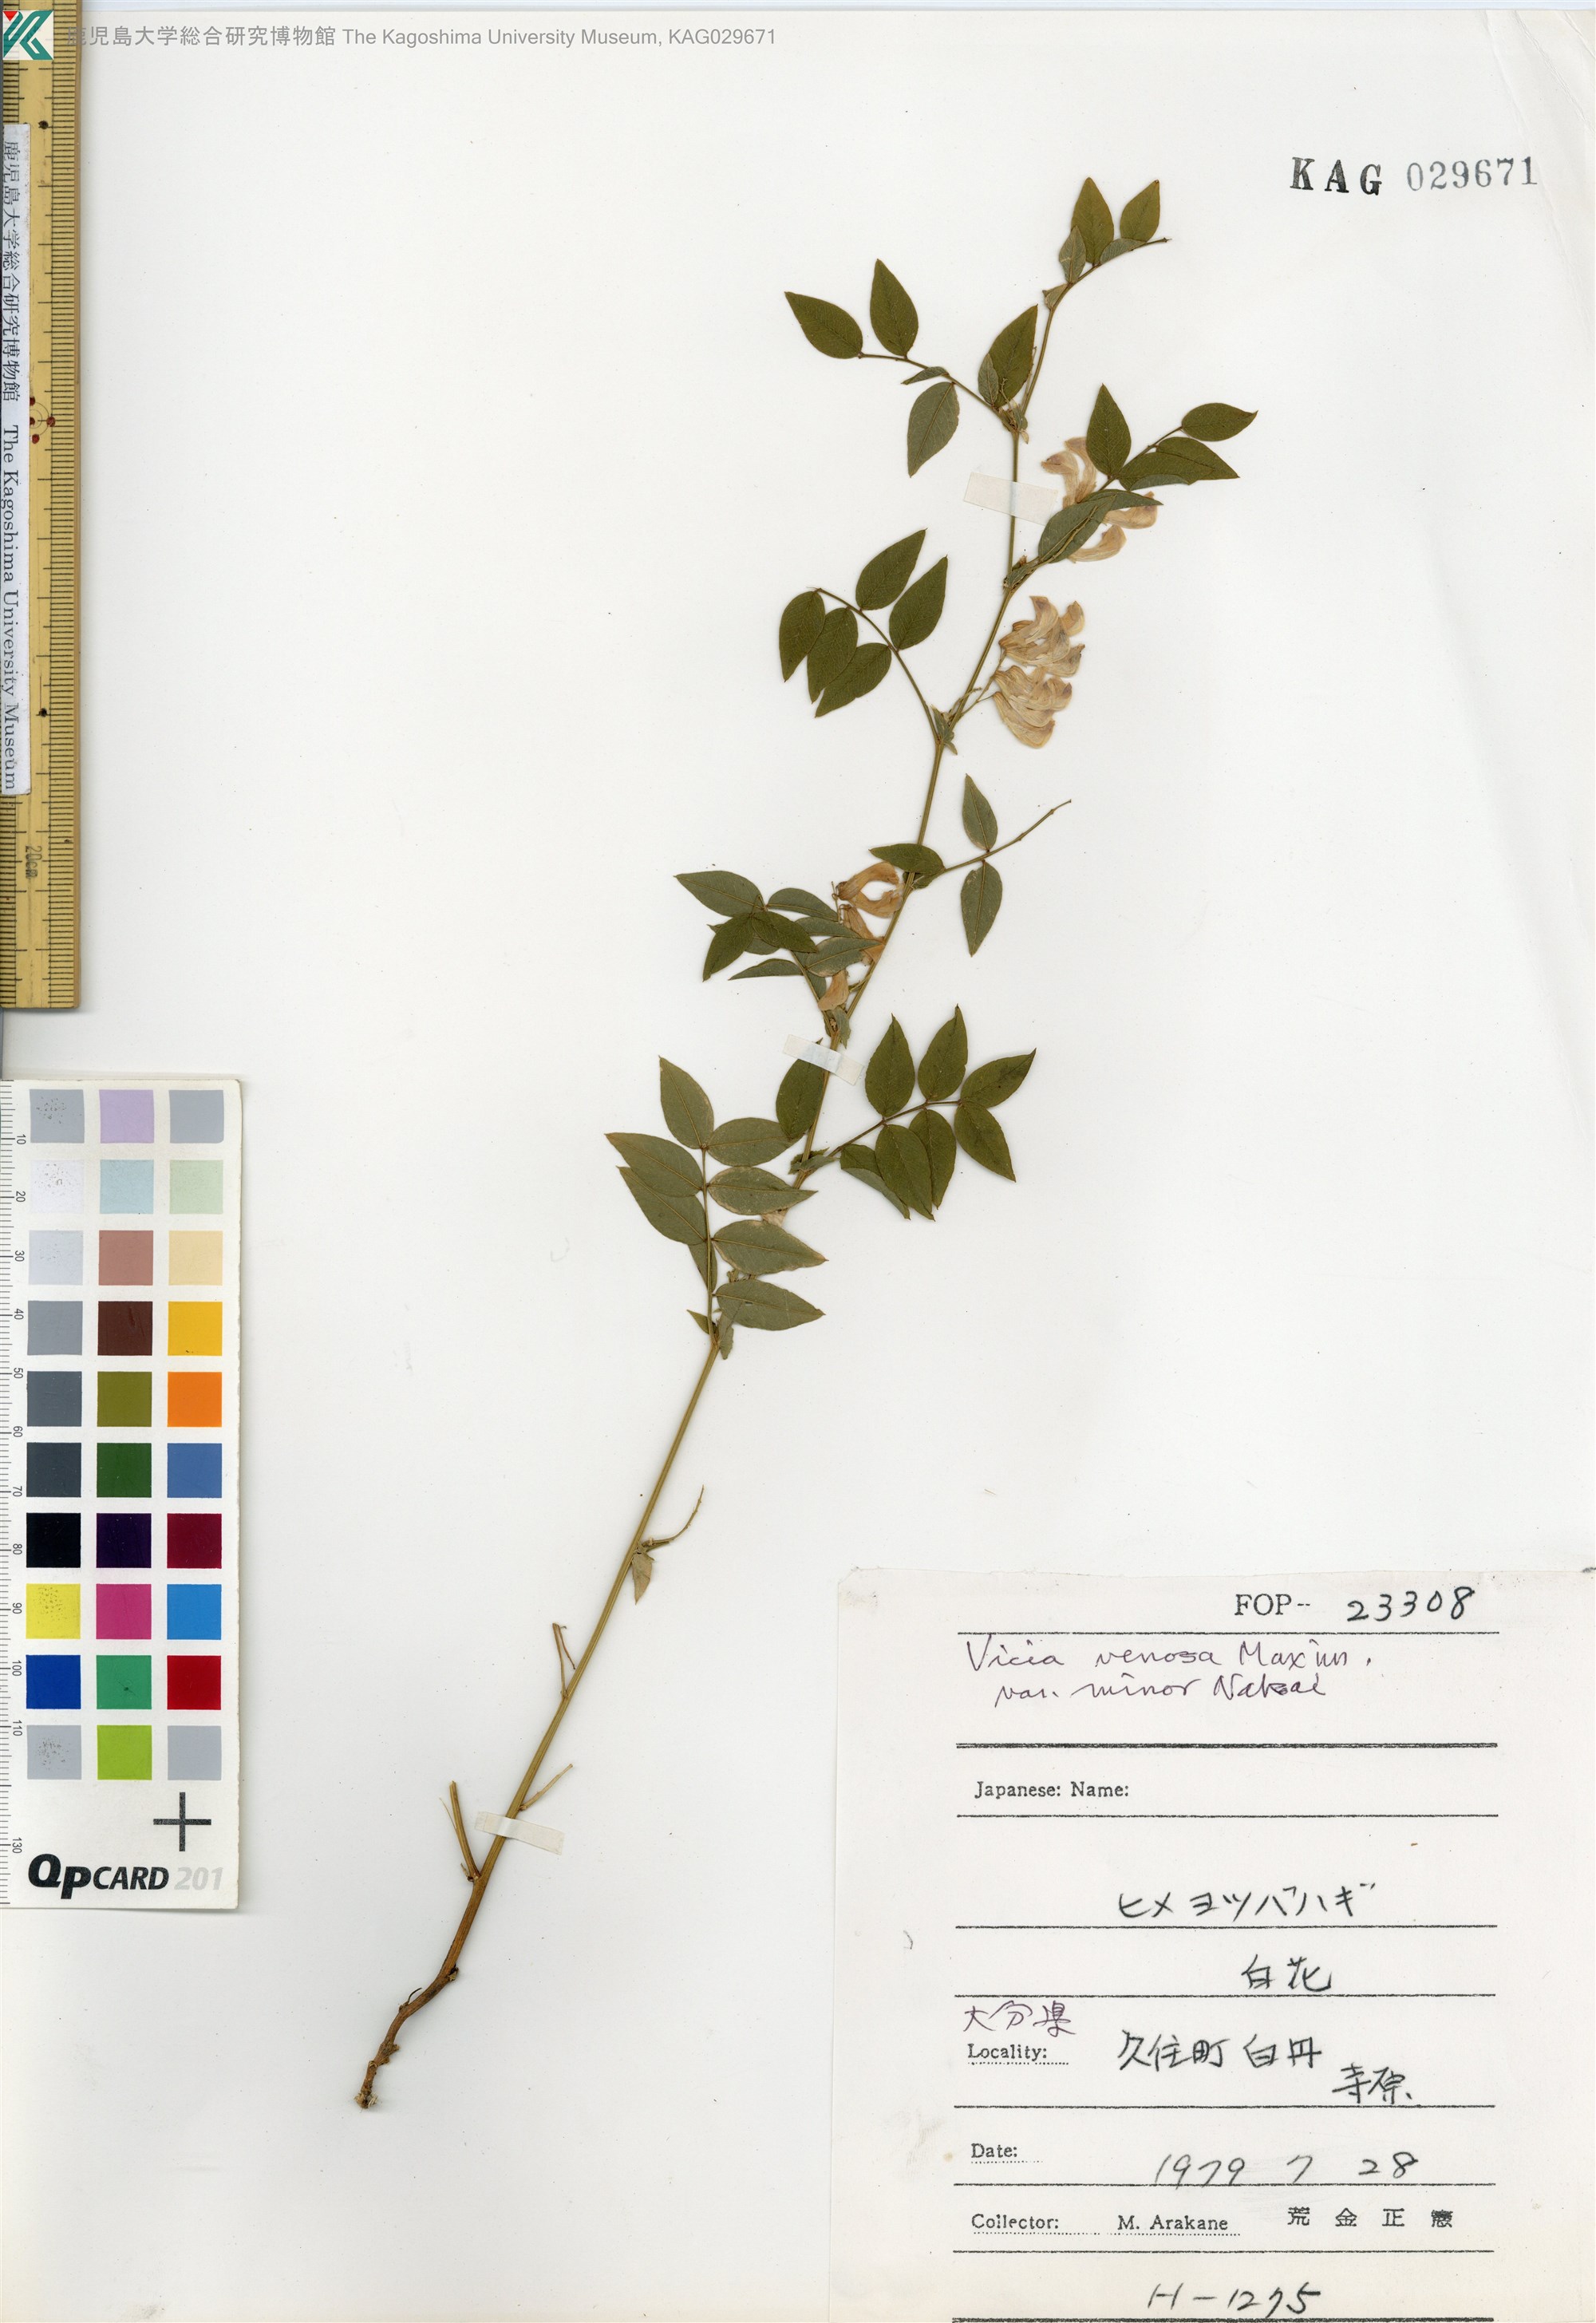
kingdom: Plantae
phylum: Tracheophyta
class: Magnoliopsida
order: Fabales
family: Fabaceae
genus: Vicia
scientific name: Vicia venosa
